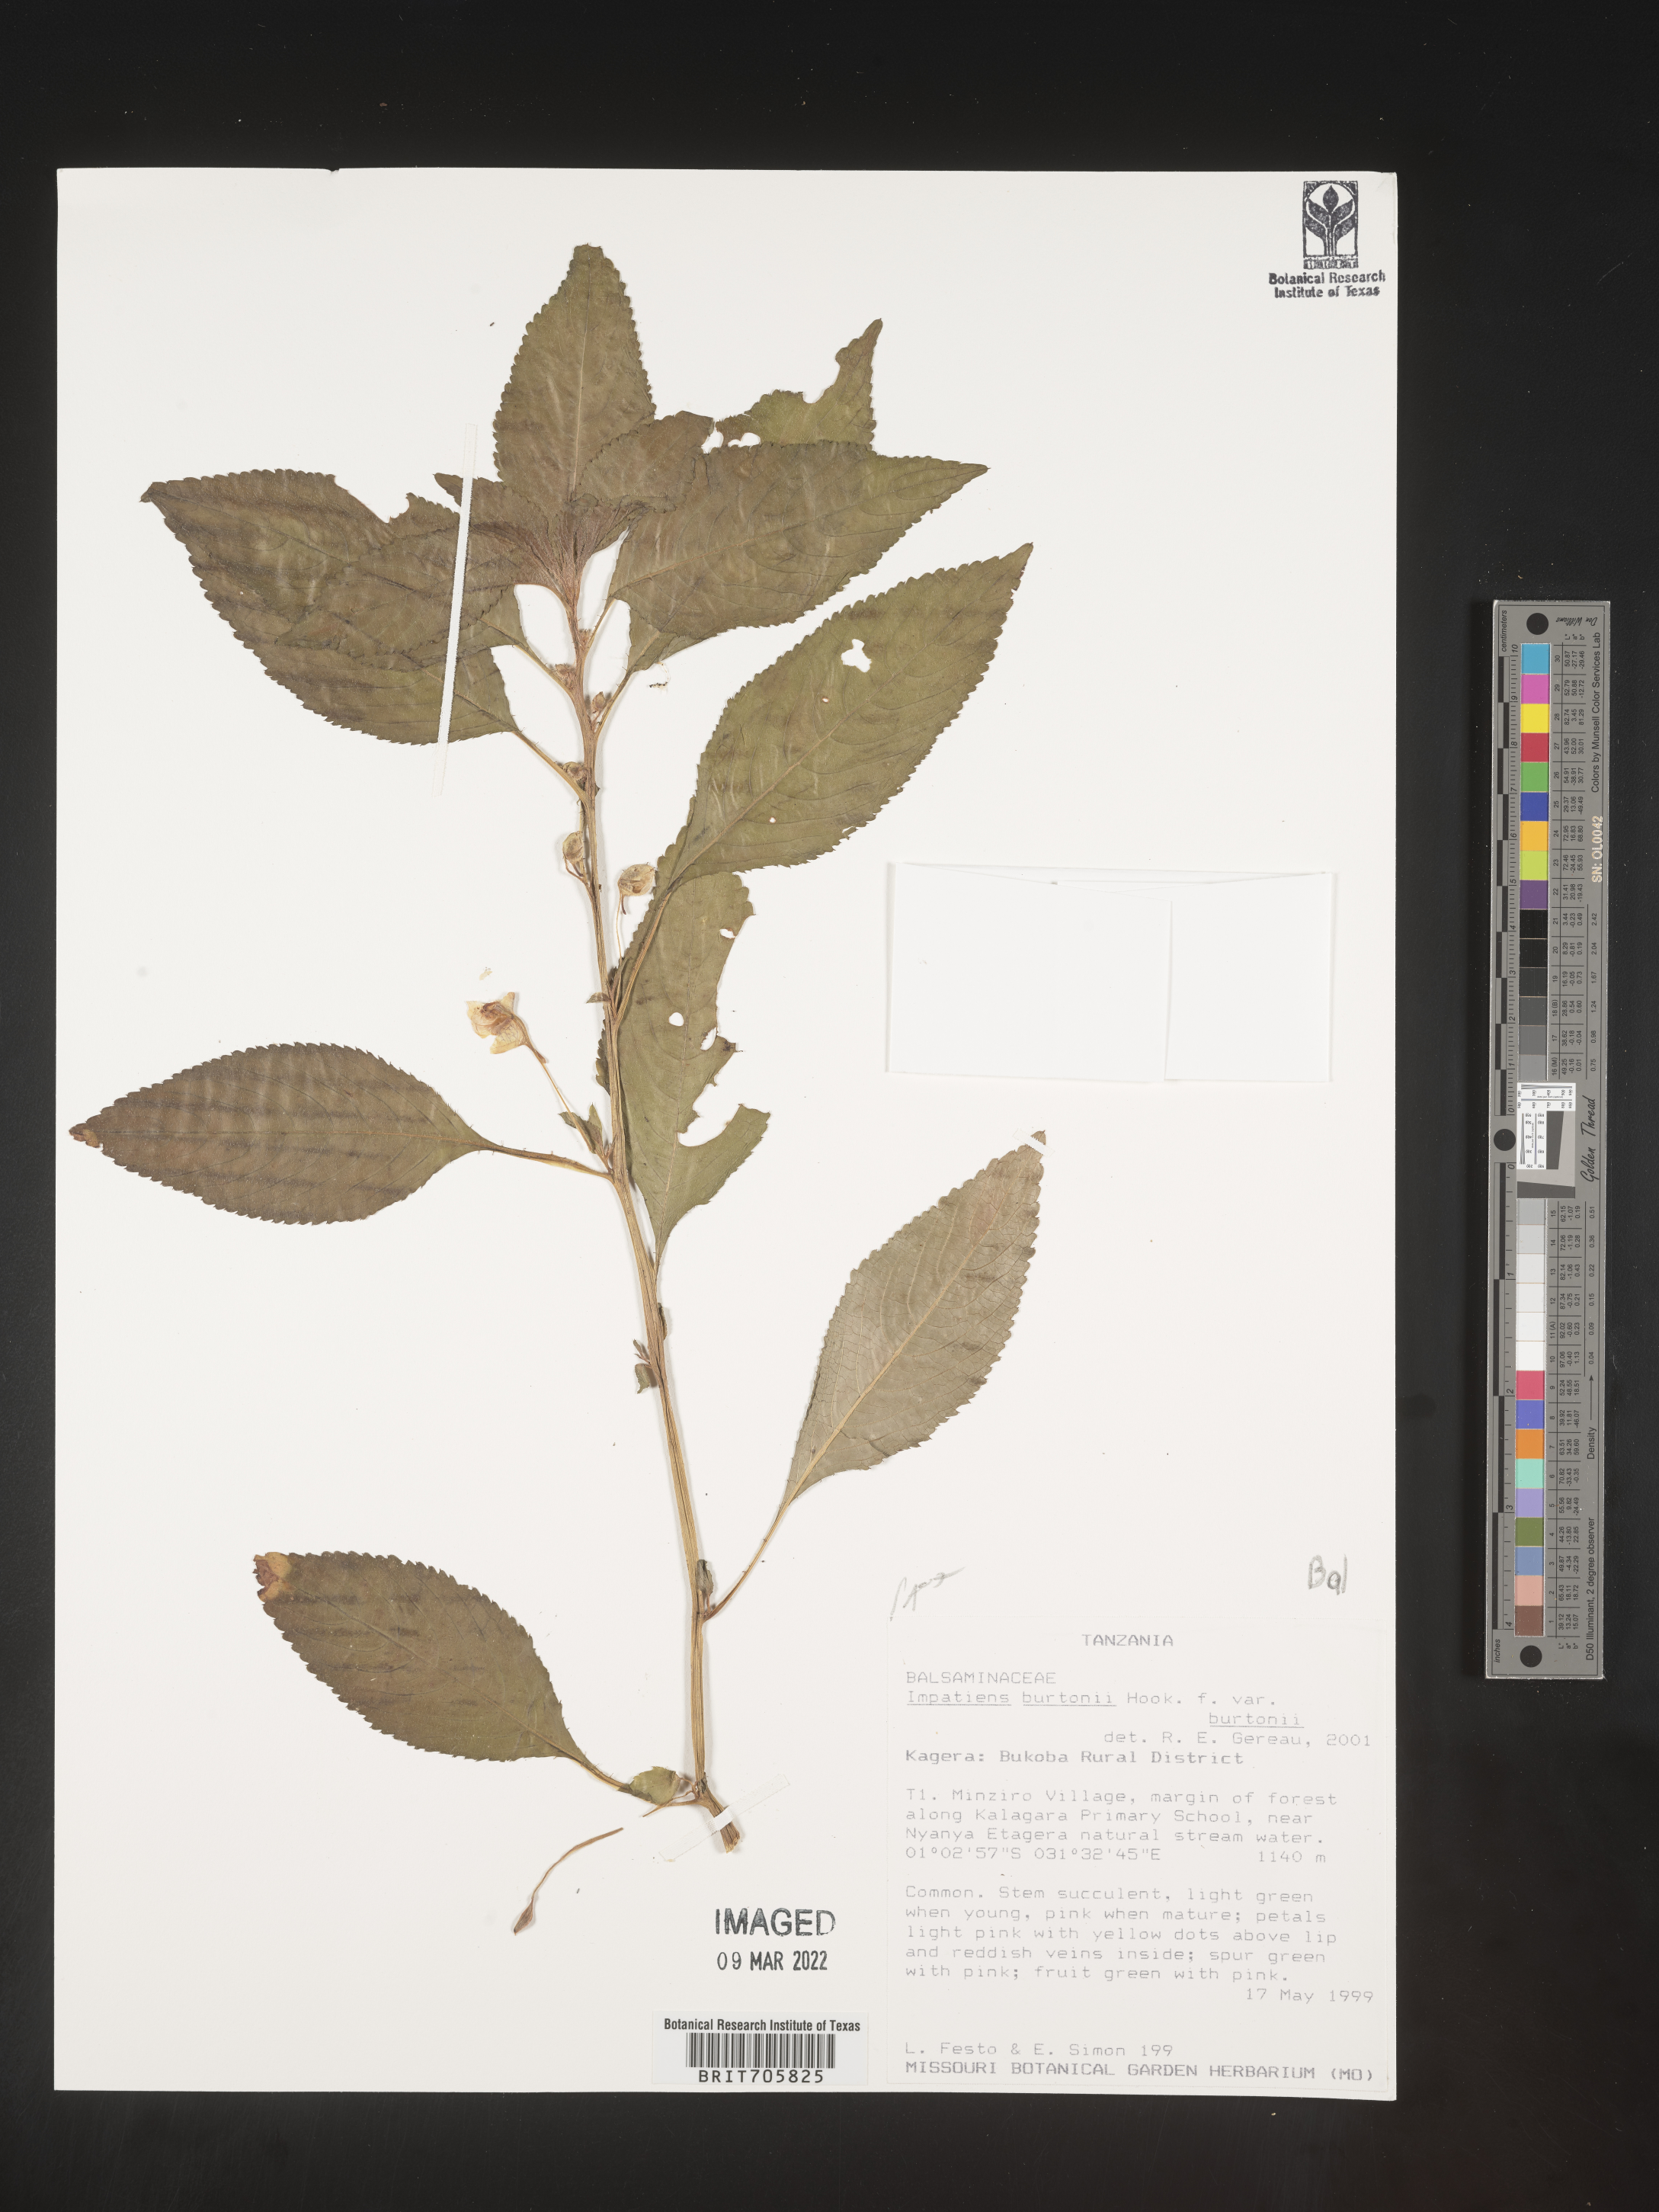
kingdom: Plantae
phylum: Tracheophyta
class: Magnoliopsida
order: Ericales
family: Balsaminaceae
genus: Impatiens
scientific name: Impatiens
